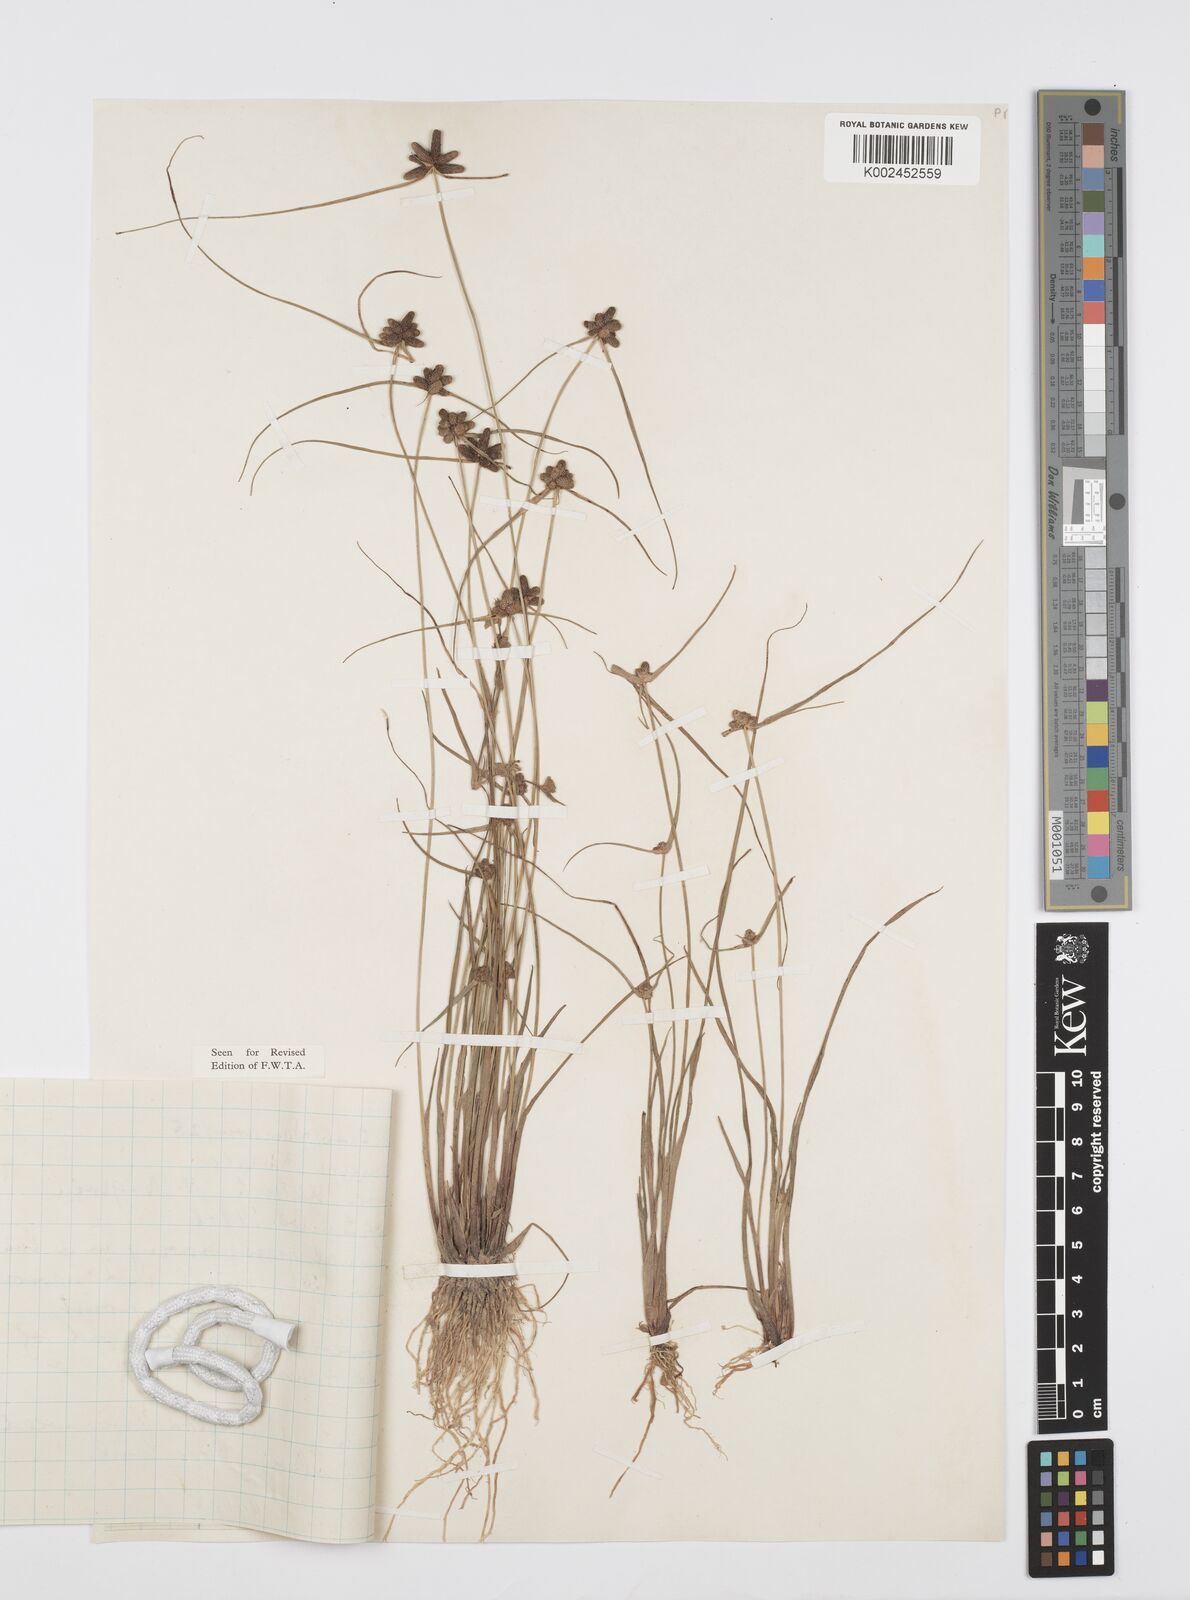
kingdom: Plantae
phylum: Tracheophyta
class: Liliopsida
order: Poales
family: Cyperaceae
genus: Cyperus
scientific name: Cyperus filiformis
